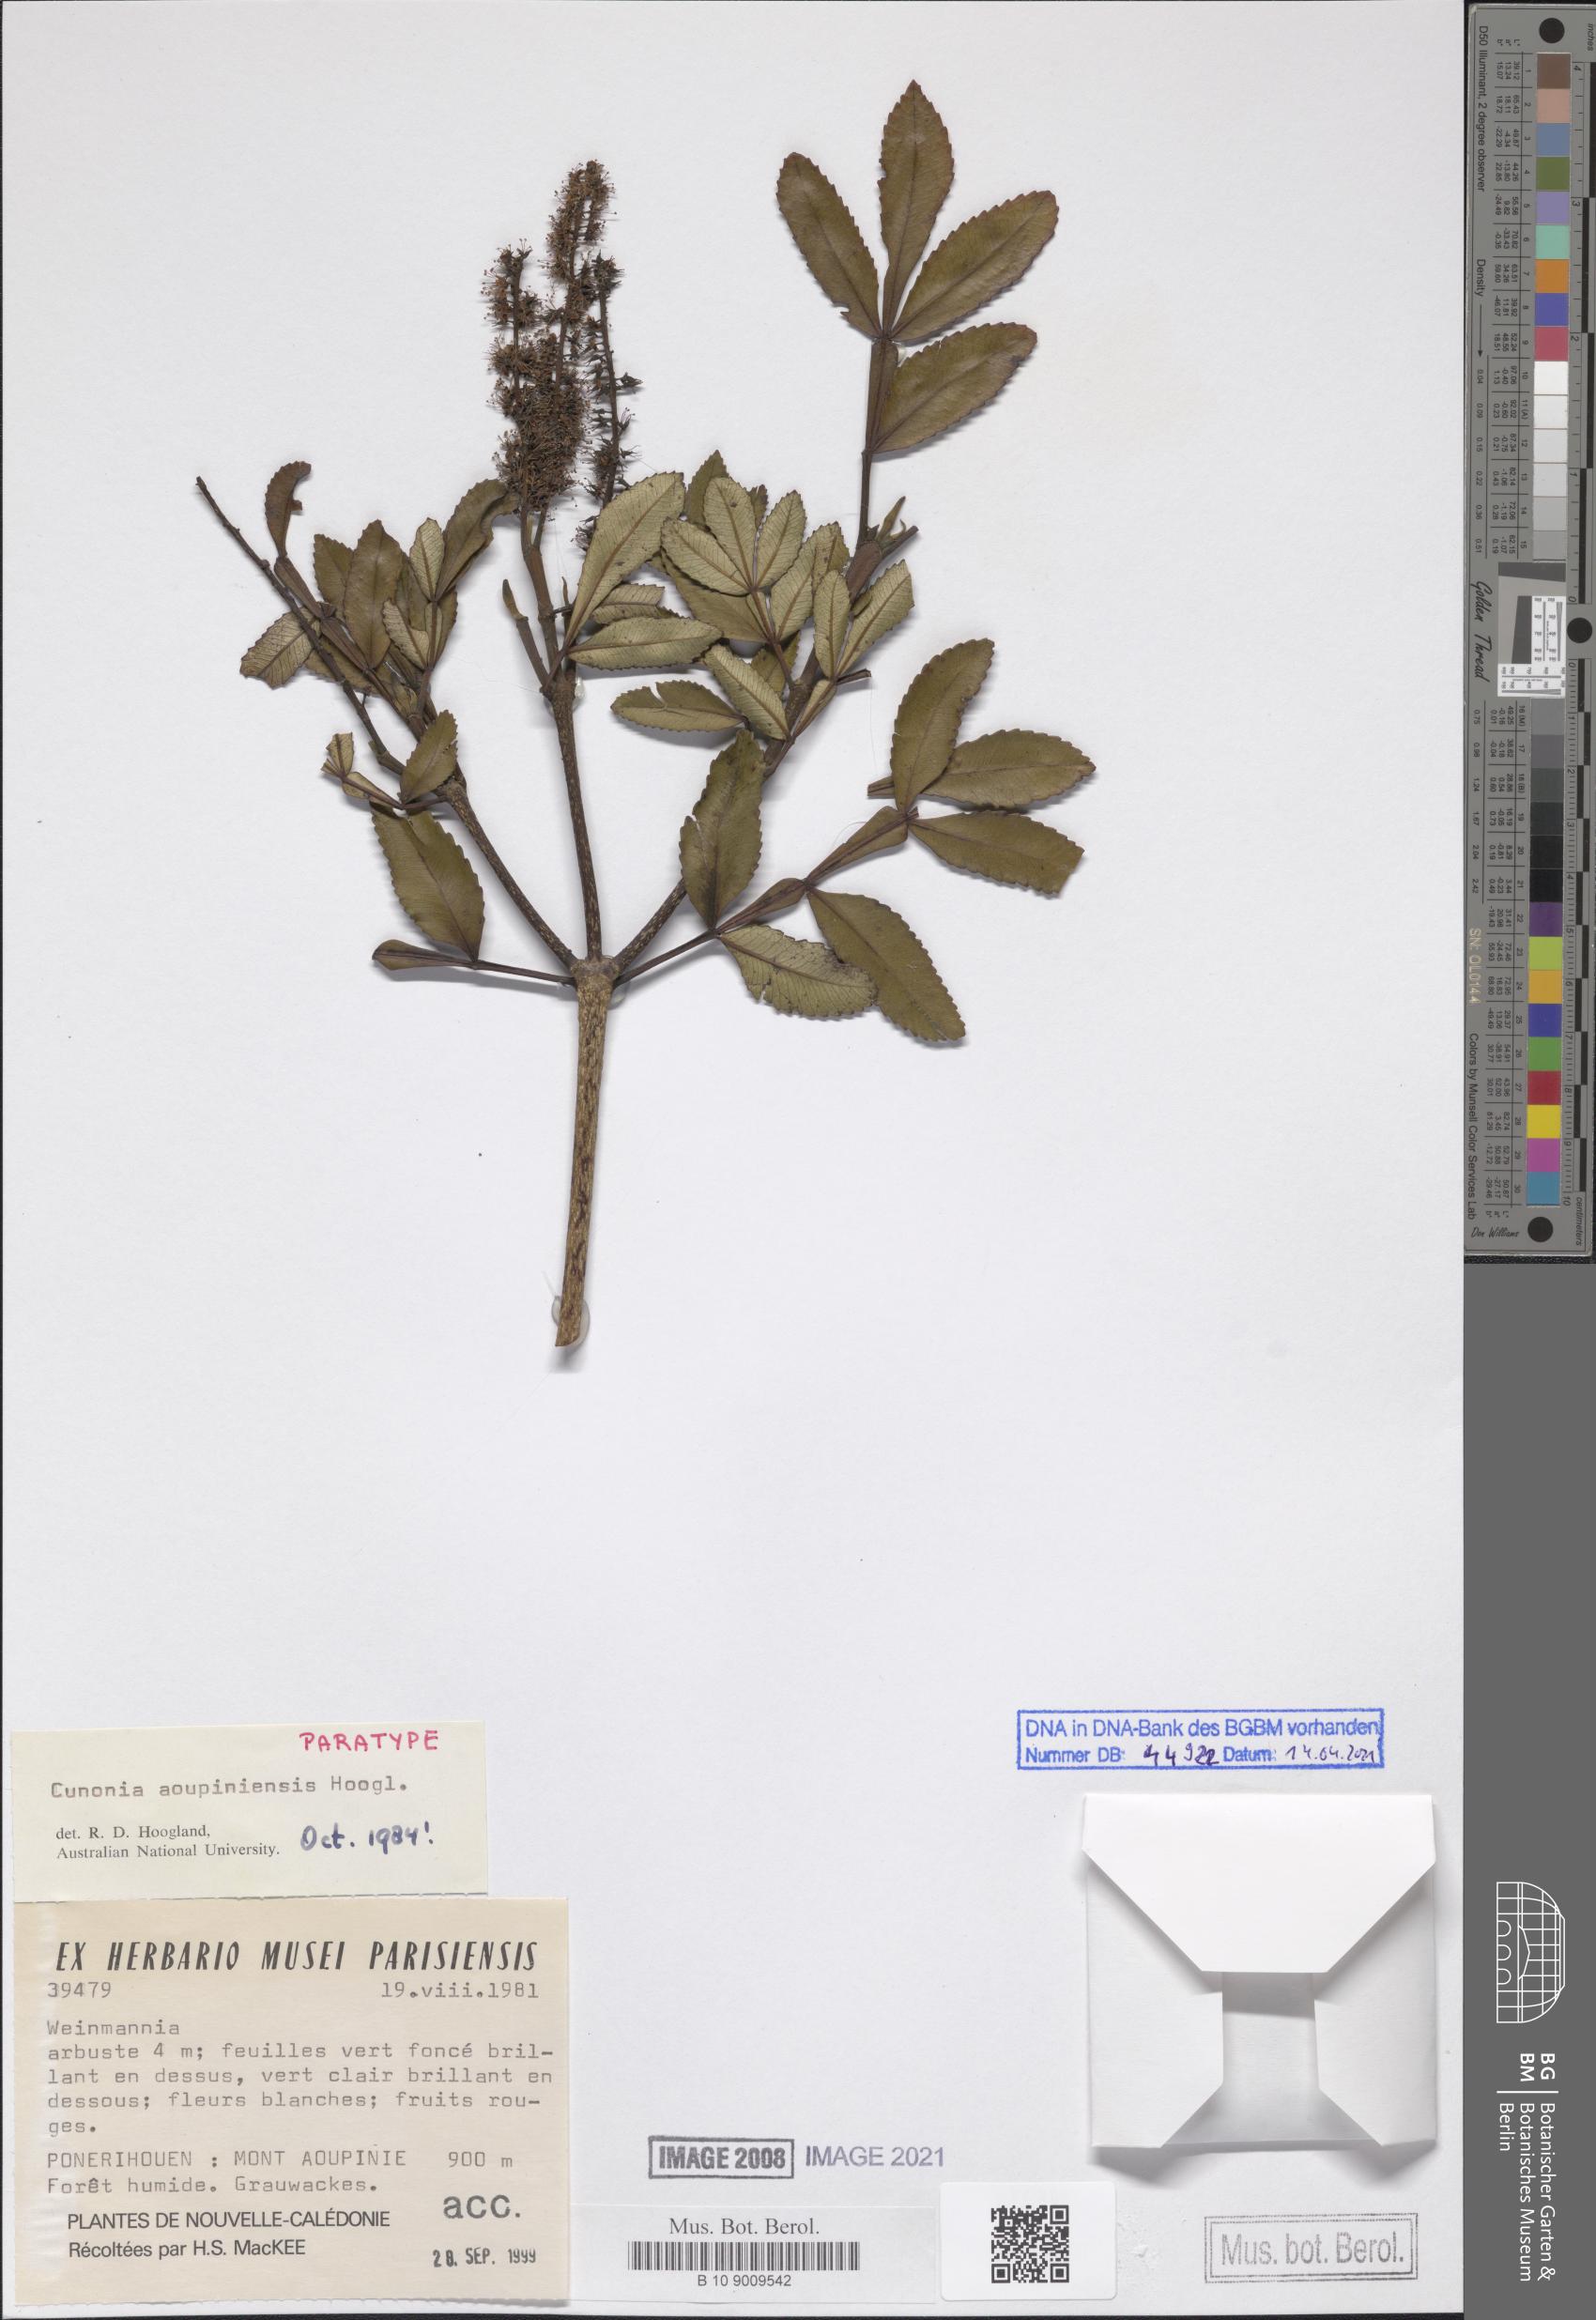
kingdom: Plantae
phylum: Tracheophyta
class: Magnoliopsida
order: Oxalidales
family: Cunoniaceae
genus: Cunonia
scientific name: Cunonia aoupiniensis
